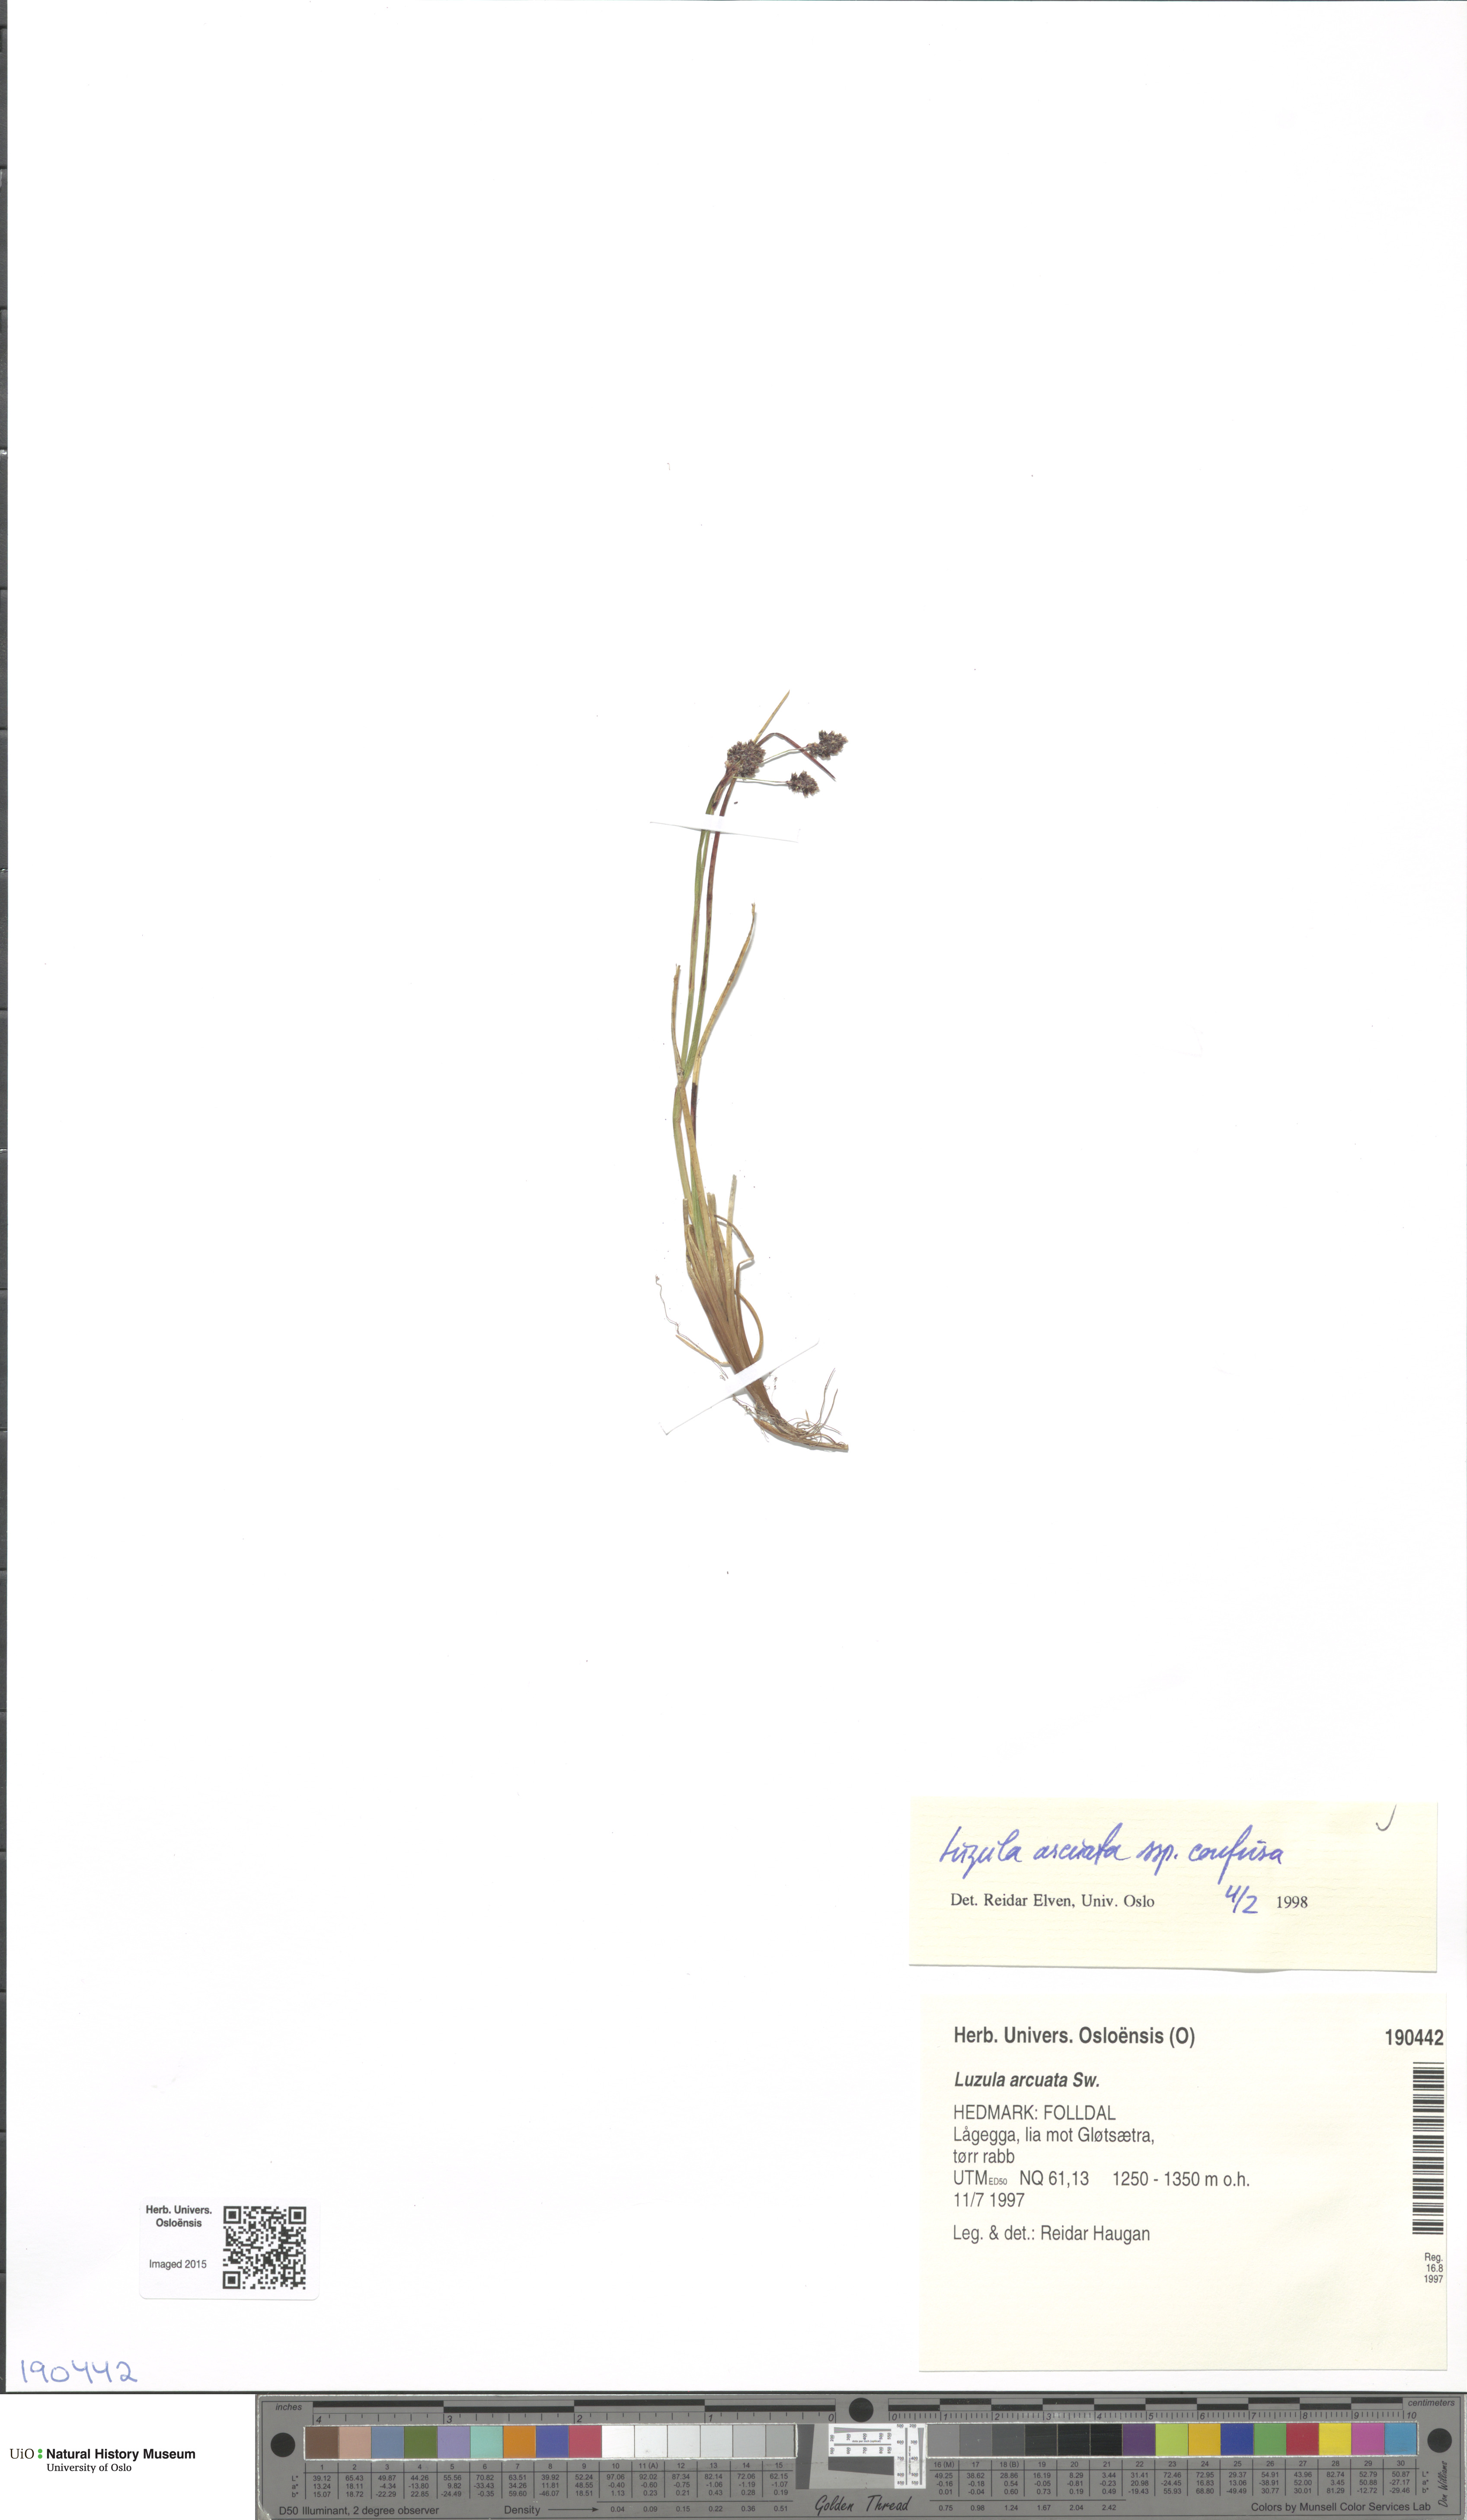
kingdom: Plantae
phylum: Tracheophyta
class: Liliopsida
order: Poales
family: Juncaceae
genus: Luzula
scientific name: Luzula confusa
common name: Northern wood rush
